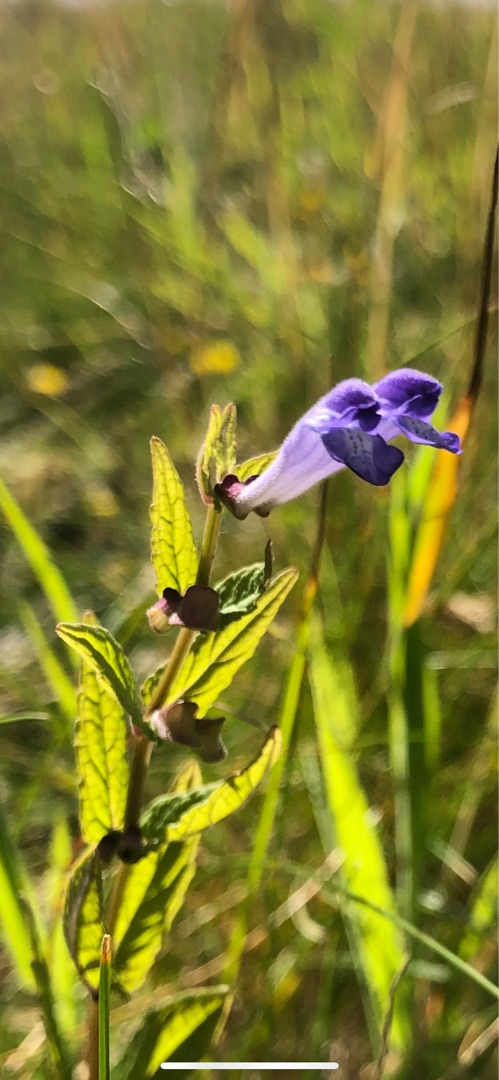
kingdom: Plantae
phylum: Tracheophyta
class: Magnoliopsida
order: Lamiales
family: Lamiaceae
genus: Scutellaria
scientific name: Scutellaria galericulata
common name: Almindelig skjolddrager
